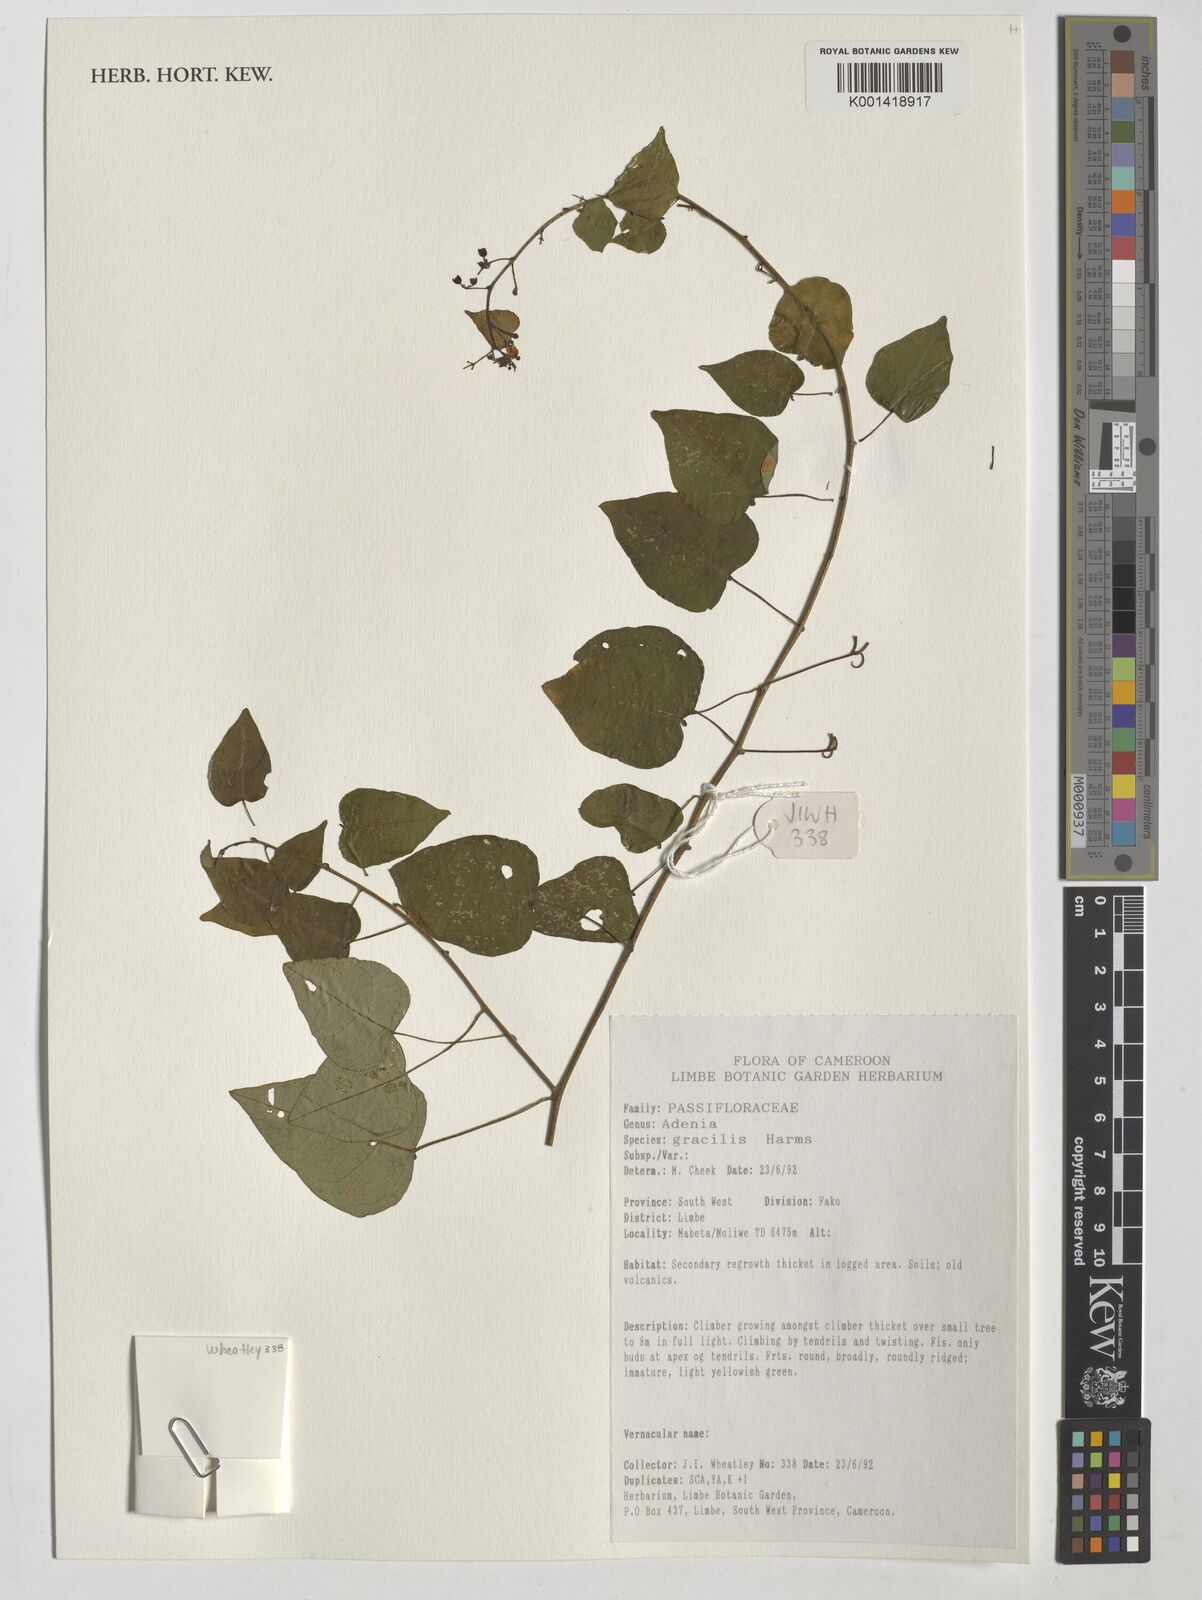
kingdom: Plantae
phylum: Tracheophyta
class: Magnoliopsida
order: Malpighiales
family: Passifloraceae
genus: Adenia
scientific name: Adenia cissampeloides
